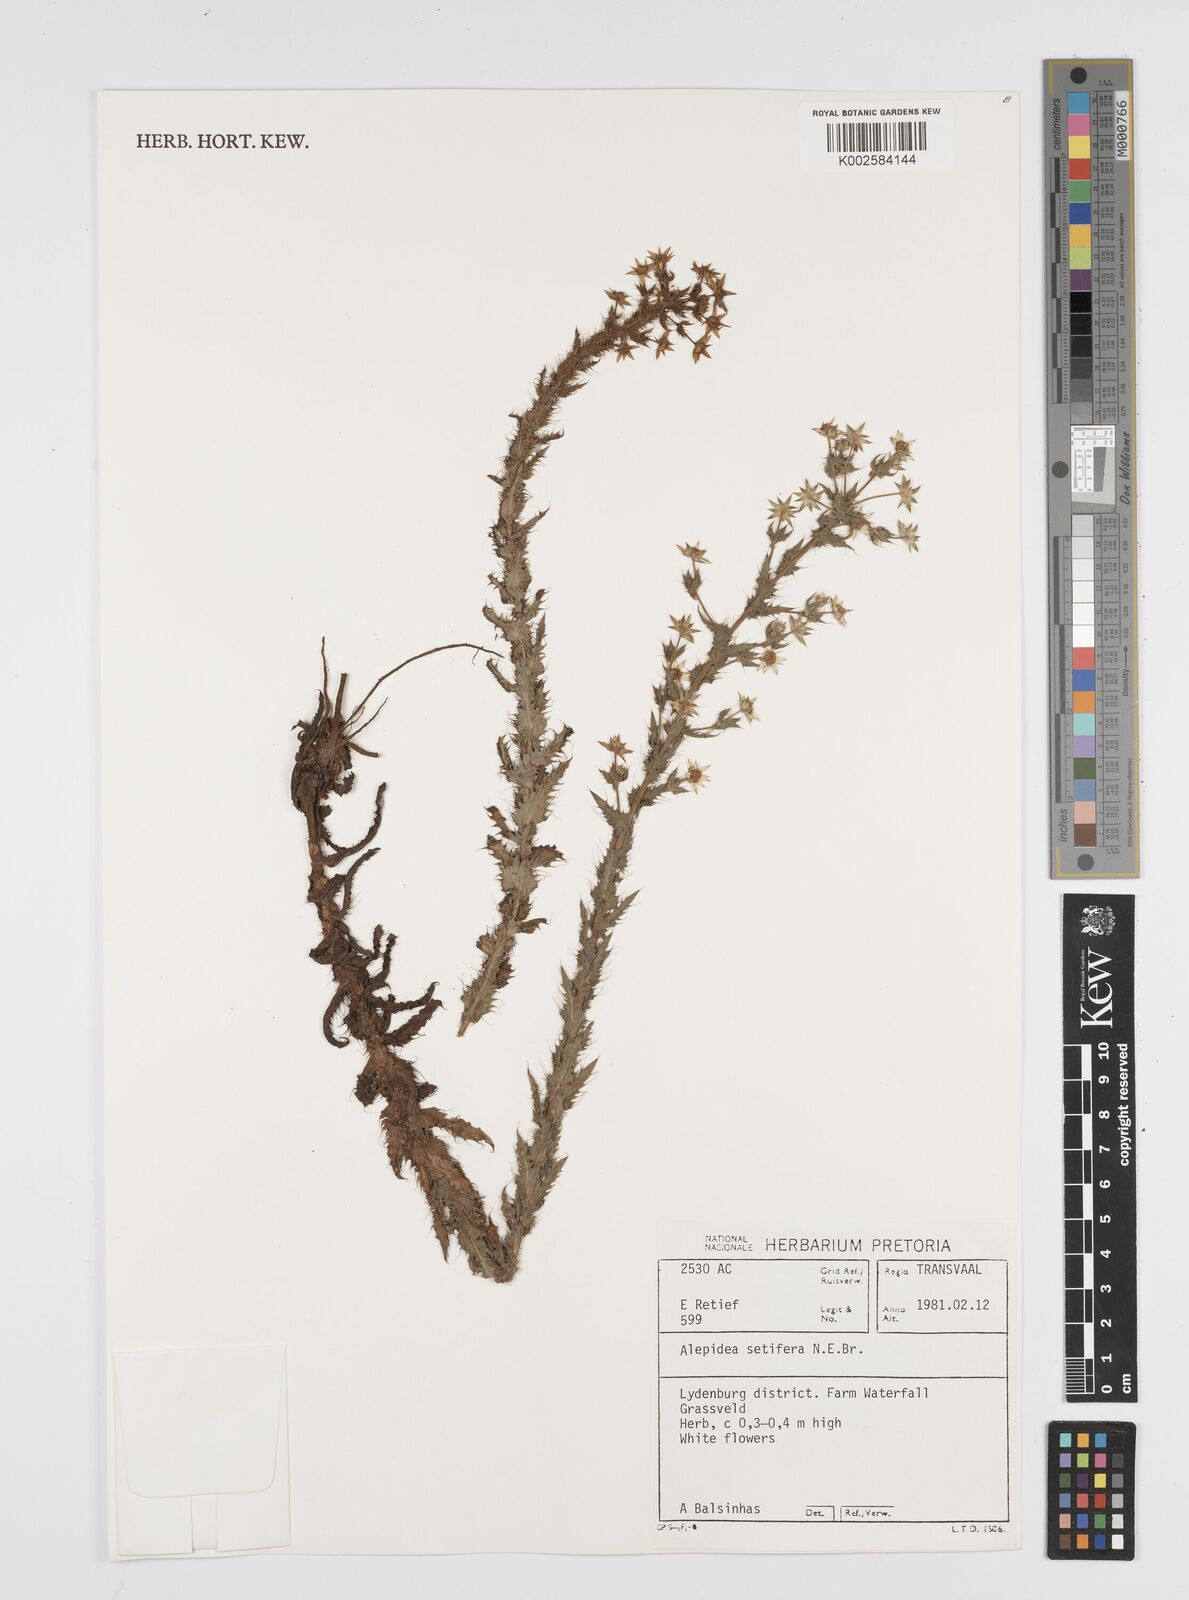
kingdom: Plantae
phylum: Tracheophyta
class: Magnoliopsida
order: Apiales
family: Apiaceae
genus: Alepidea
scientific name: Alepidea setifera
